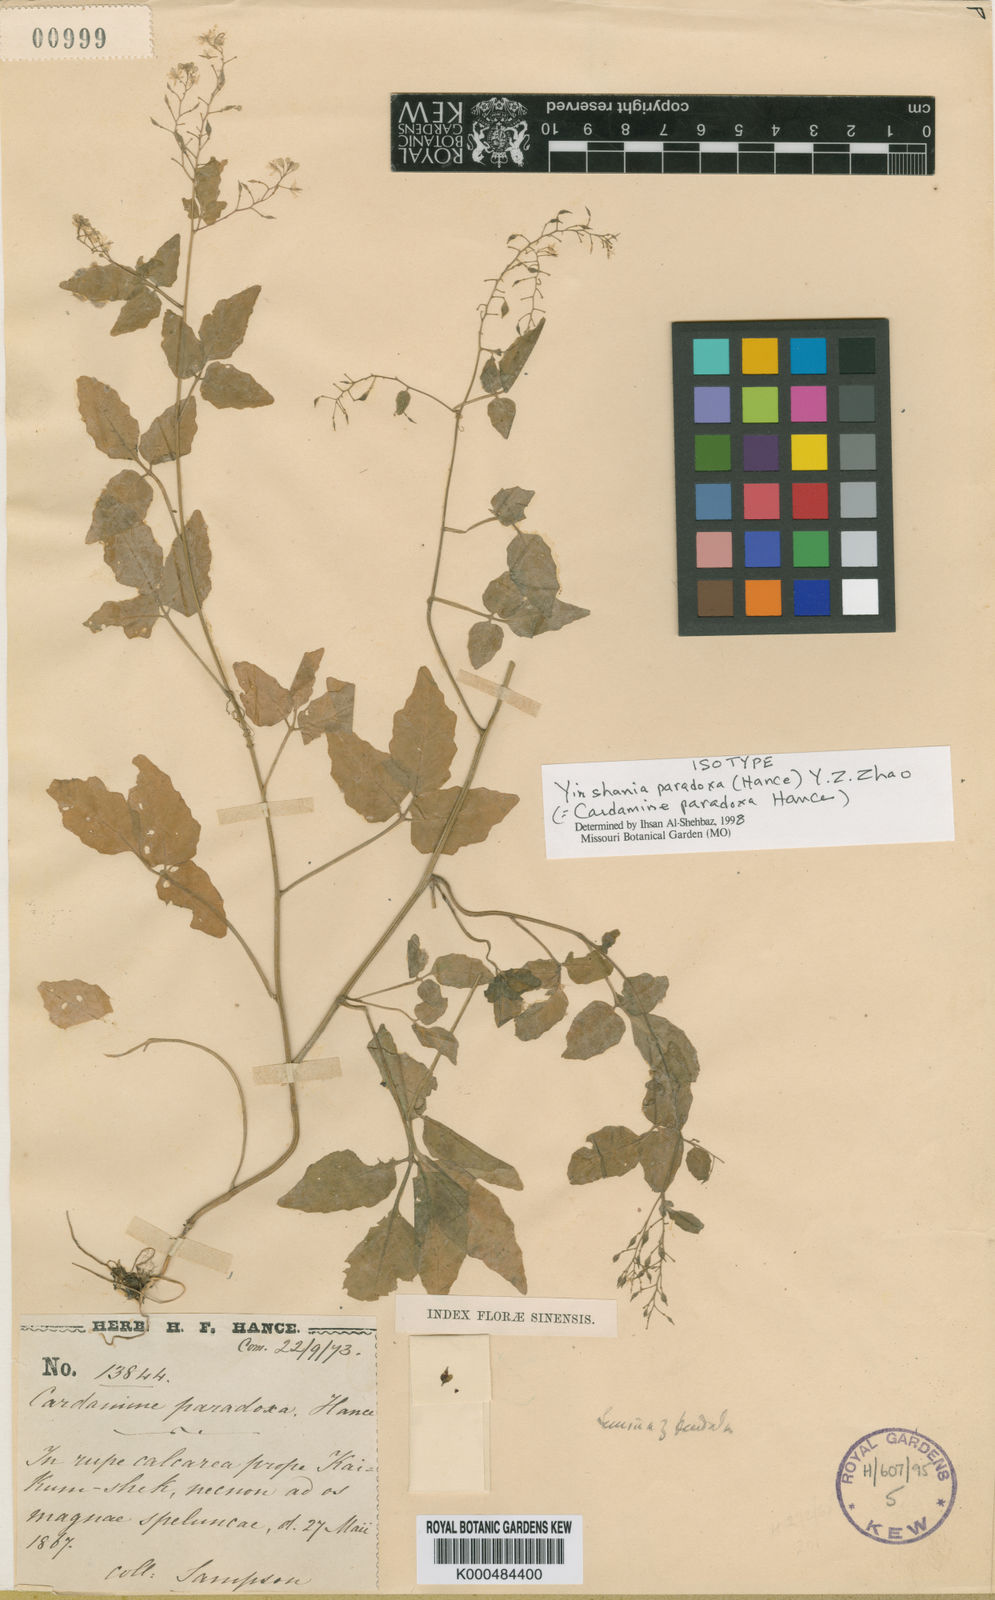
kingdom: Plantae
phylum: Tracheophyta
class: Magnoliopsida
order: Brassicales
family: Brassicaceae
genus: Hilliella
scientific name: Hilliella paradoxa
